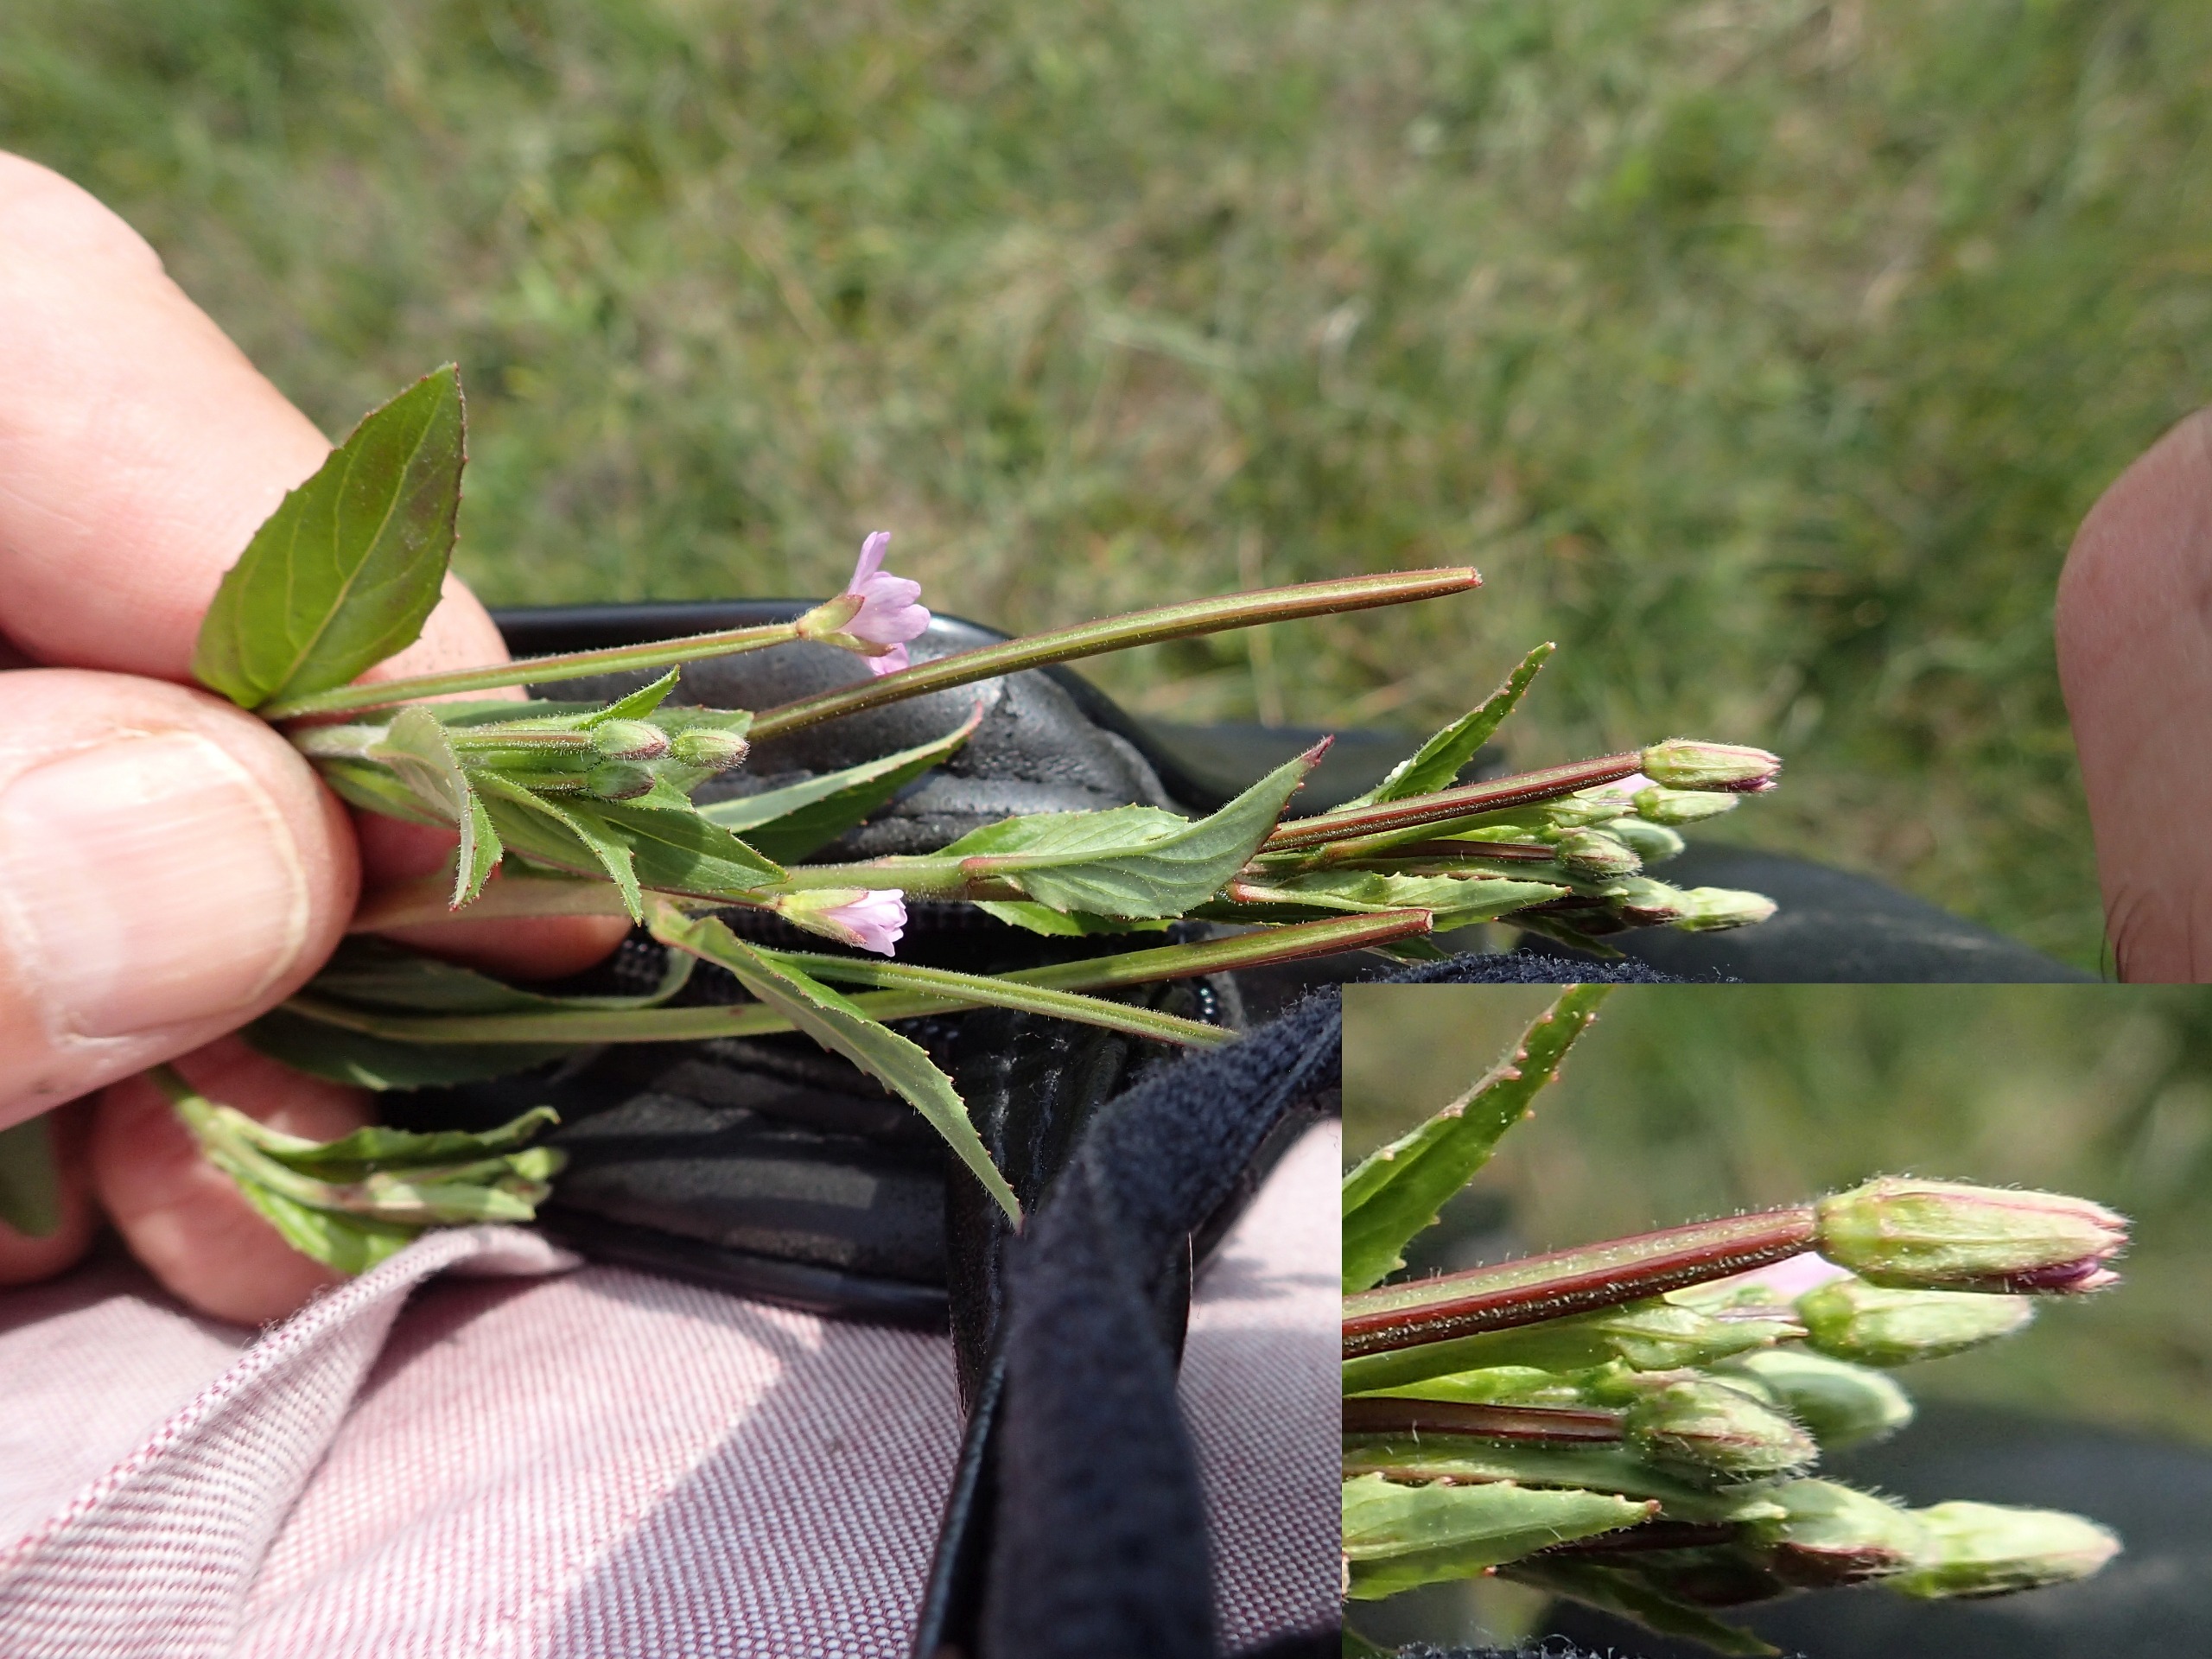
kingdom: Plantae
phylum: Tracheophyta
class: Magnoliopsida
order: Myrtales
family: Onagraceae
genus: Epilobium
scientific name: Epilobium ciliatum
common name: Kirtlet dueurt
